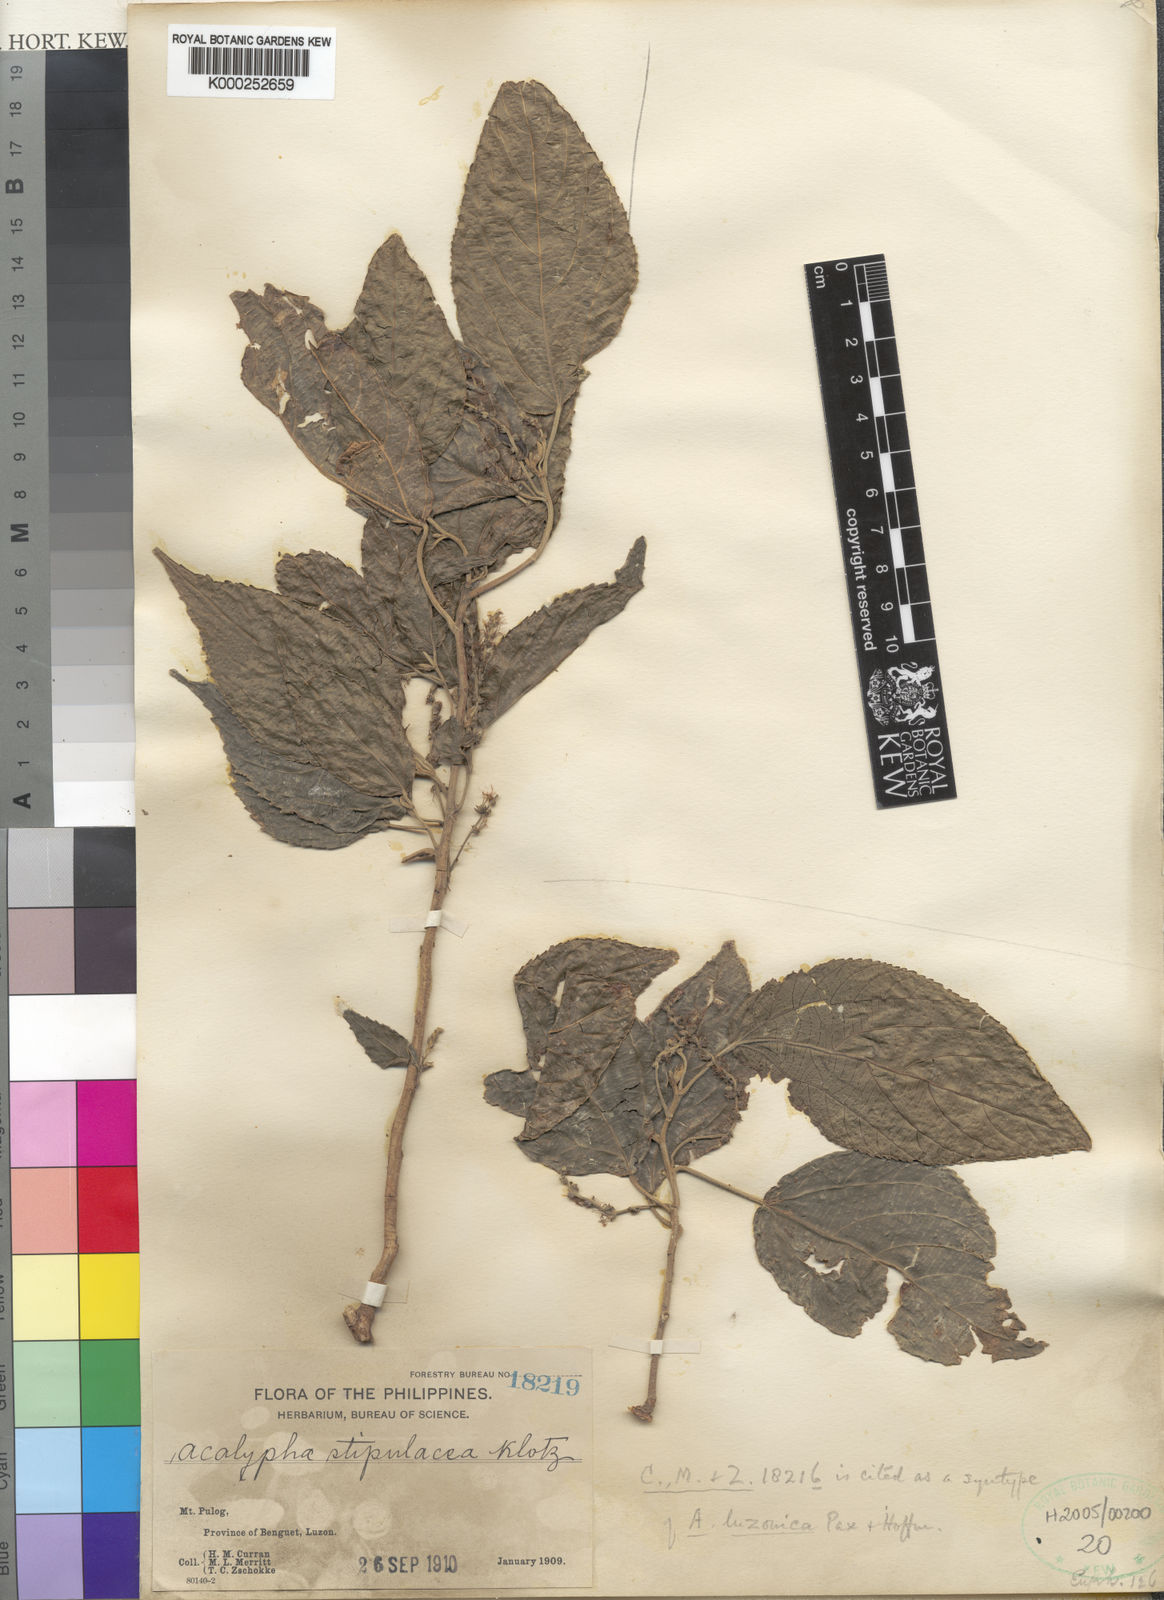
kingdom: Plantae
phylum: Tracheophyta
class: Magnoliopsida
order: Malpighiales
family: Euphorbiaceae
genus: Acalypha
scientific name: Acalypha amentacea
